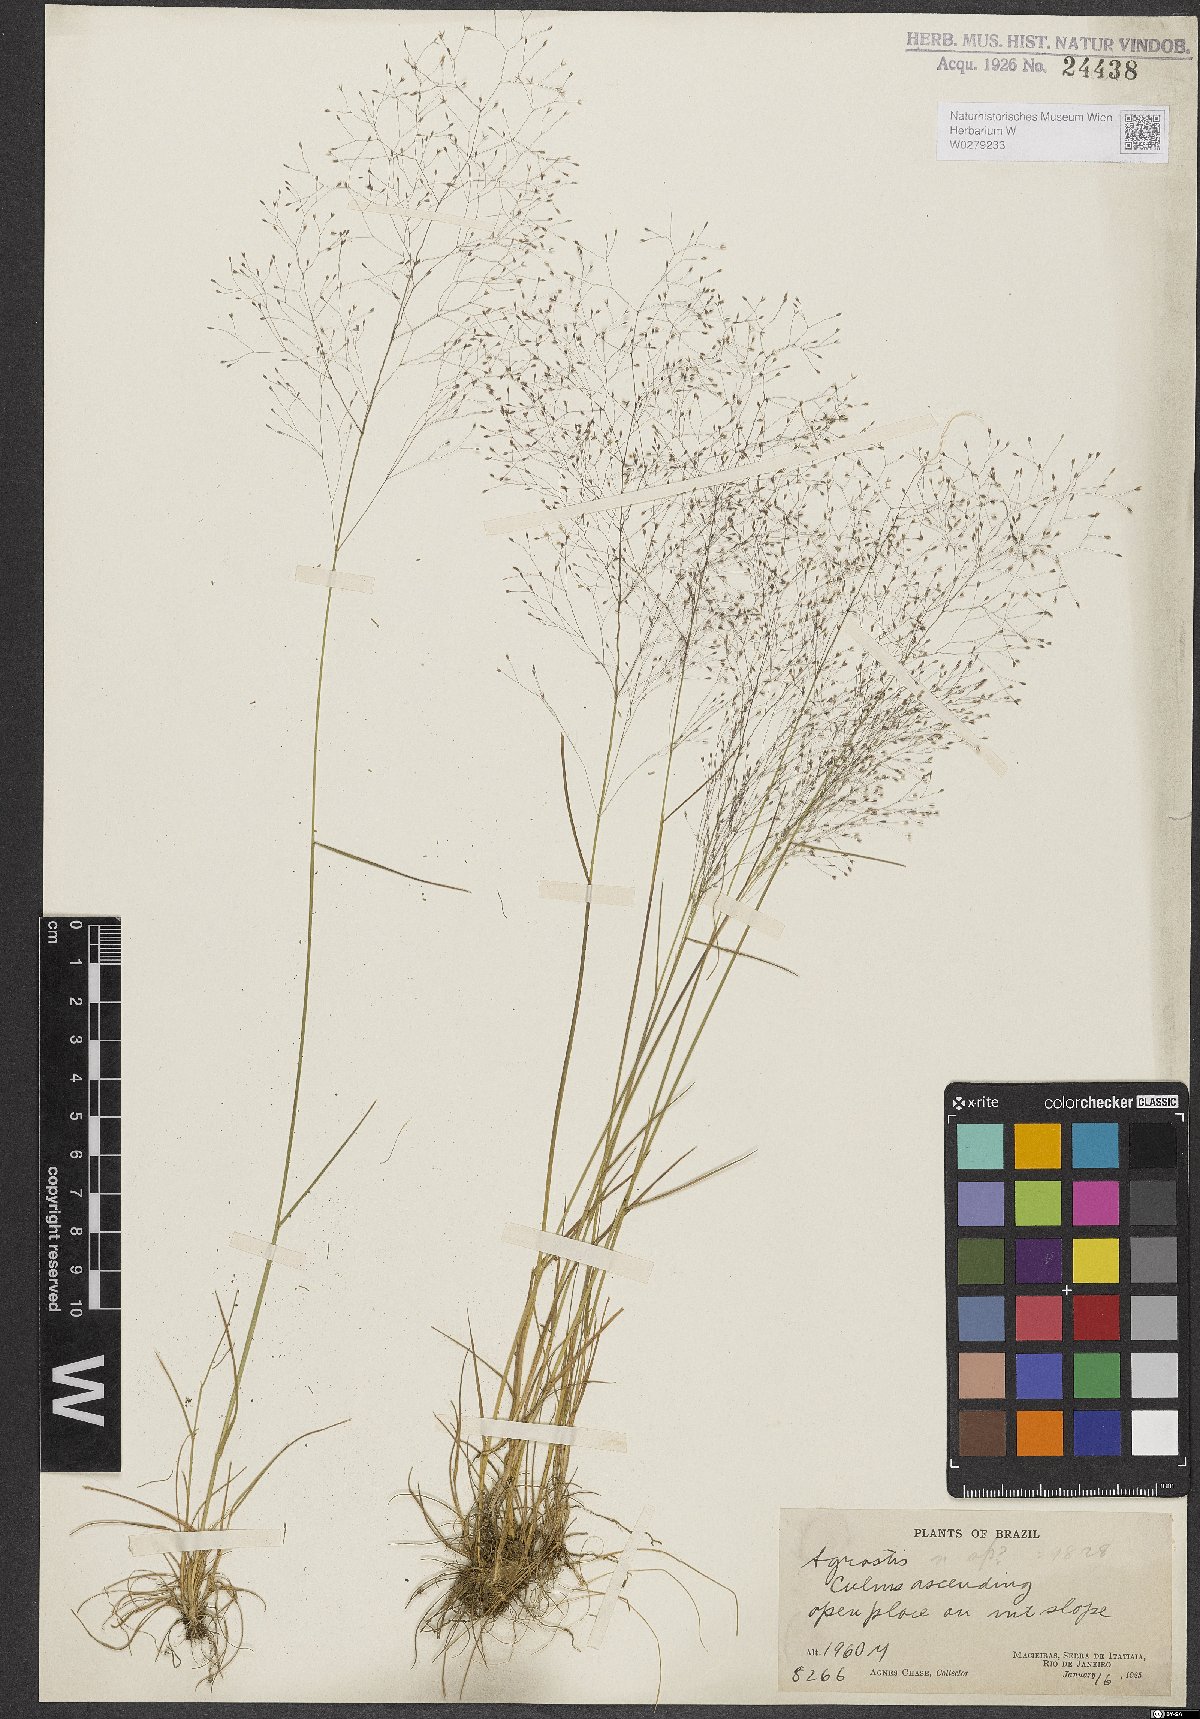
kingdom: Plantae
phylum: Tracheophyta
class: Liliopsida
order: Poales
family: Poaceae
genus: Agrostis
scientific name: Agrostis
